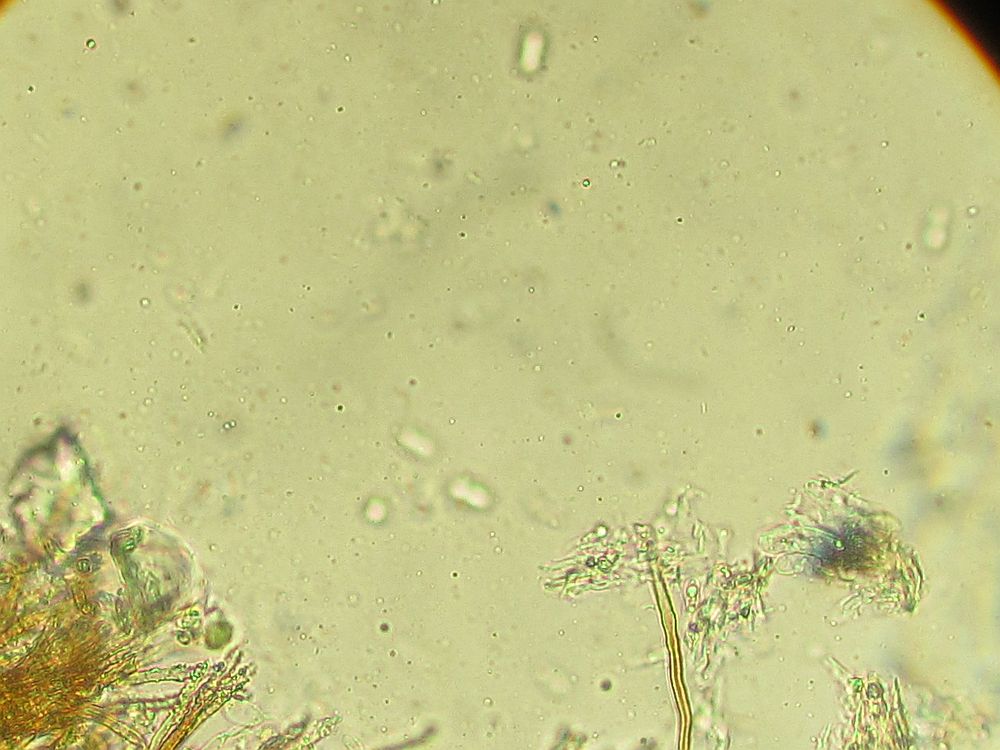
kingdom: Fungi
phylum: Basidiomycota
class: Agaricomycetes
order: Agaricales
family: Niaceae
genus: Merismodes
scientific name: Merismodes anomala
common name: almindelig læderskål
